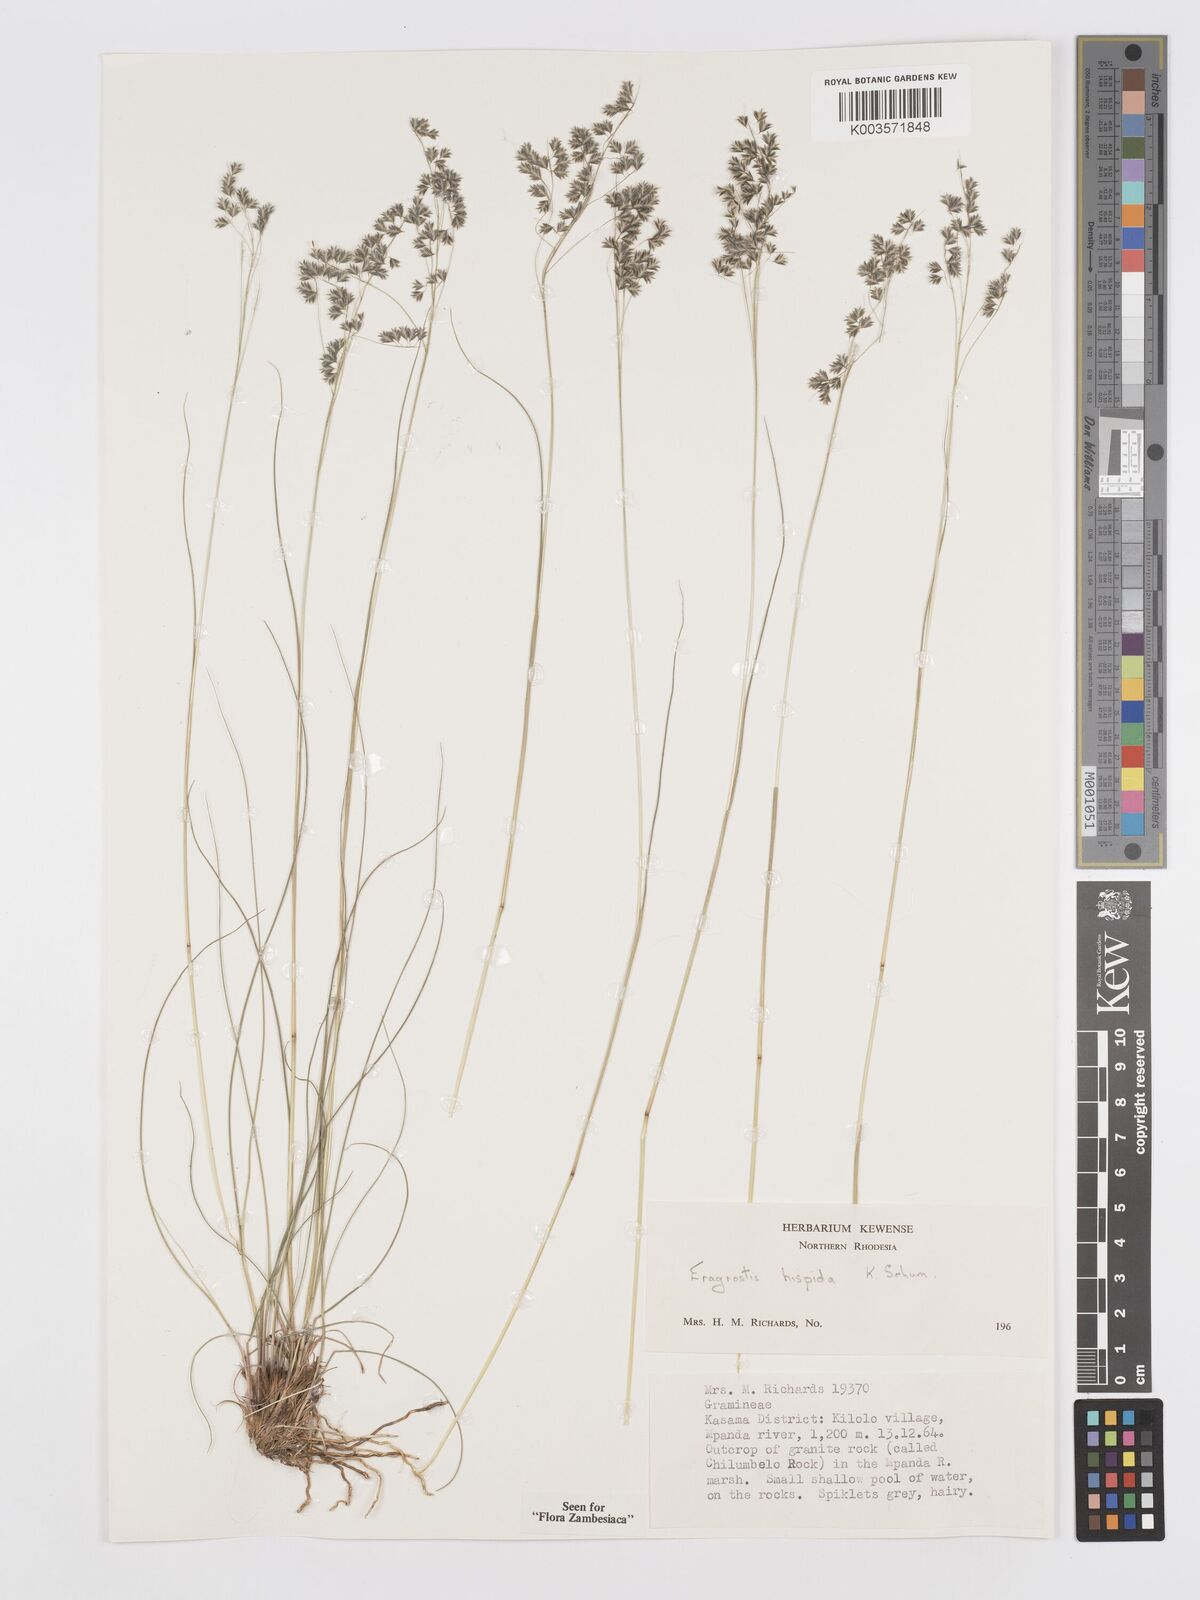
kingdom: Plantae
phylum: Tracheophyta
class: Liliopsida
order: Poales
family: Poaceae
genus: Eragrostis
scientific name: Eragrostis hispida
